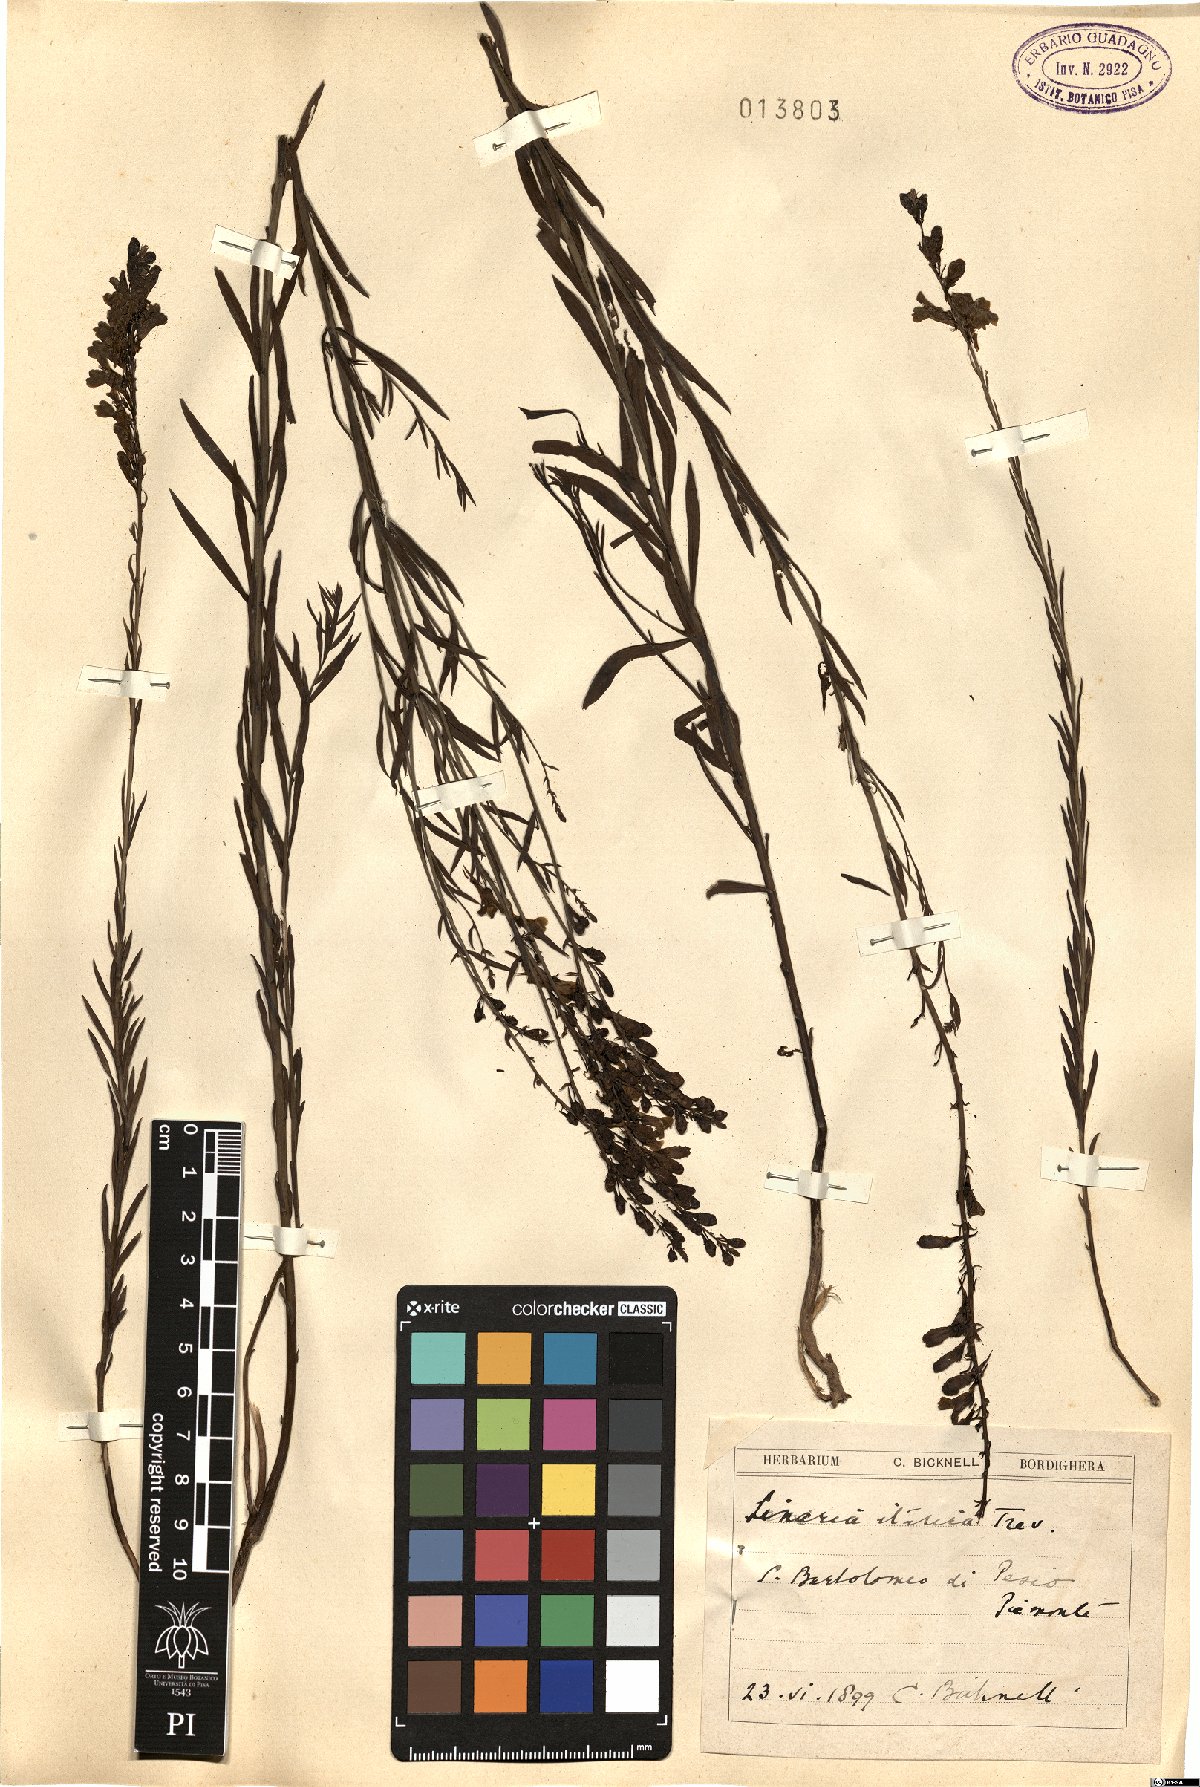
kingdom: Plantae
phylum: Tracheophyta
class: Magnoliopsida
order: Lamiales
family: Plantaginaceae
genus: Linaria
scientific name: Linaria angustissima
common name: Italian toadflax
